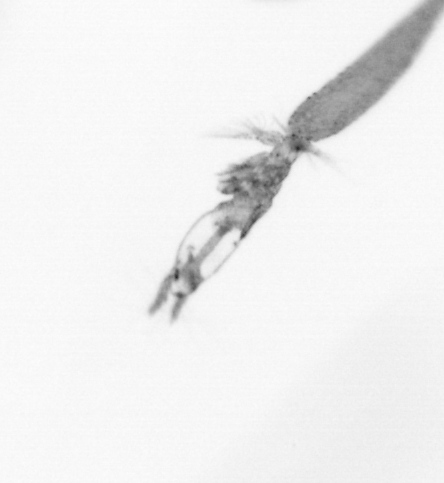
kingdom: Animalia
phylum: Arthropoda
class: Copepoda
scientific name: Copepoda
